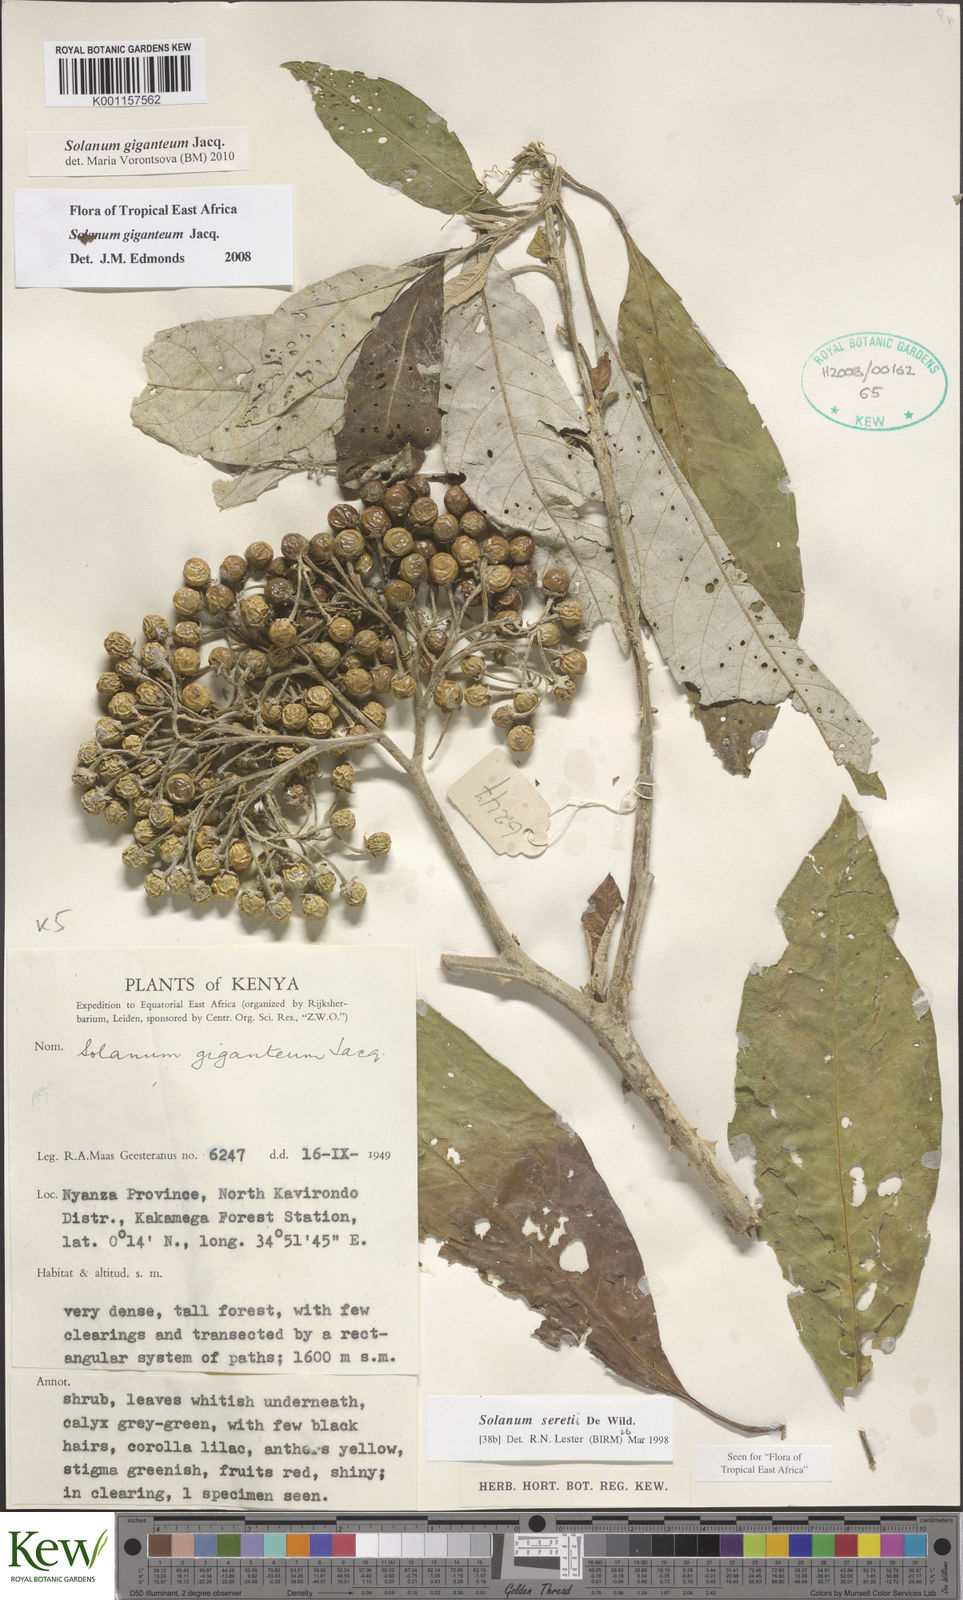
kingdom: Plantae
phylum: Tracheophyta
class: Magnoliopsida
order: Solanales
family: Solanaceae
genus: Solanum
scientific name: Solanum giganteum
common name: Healing-leaf-tree
